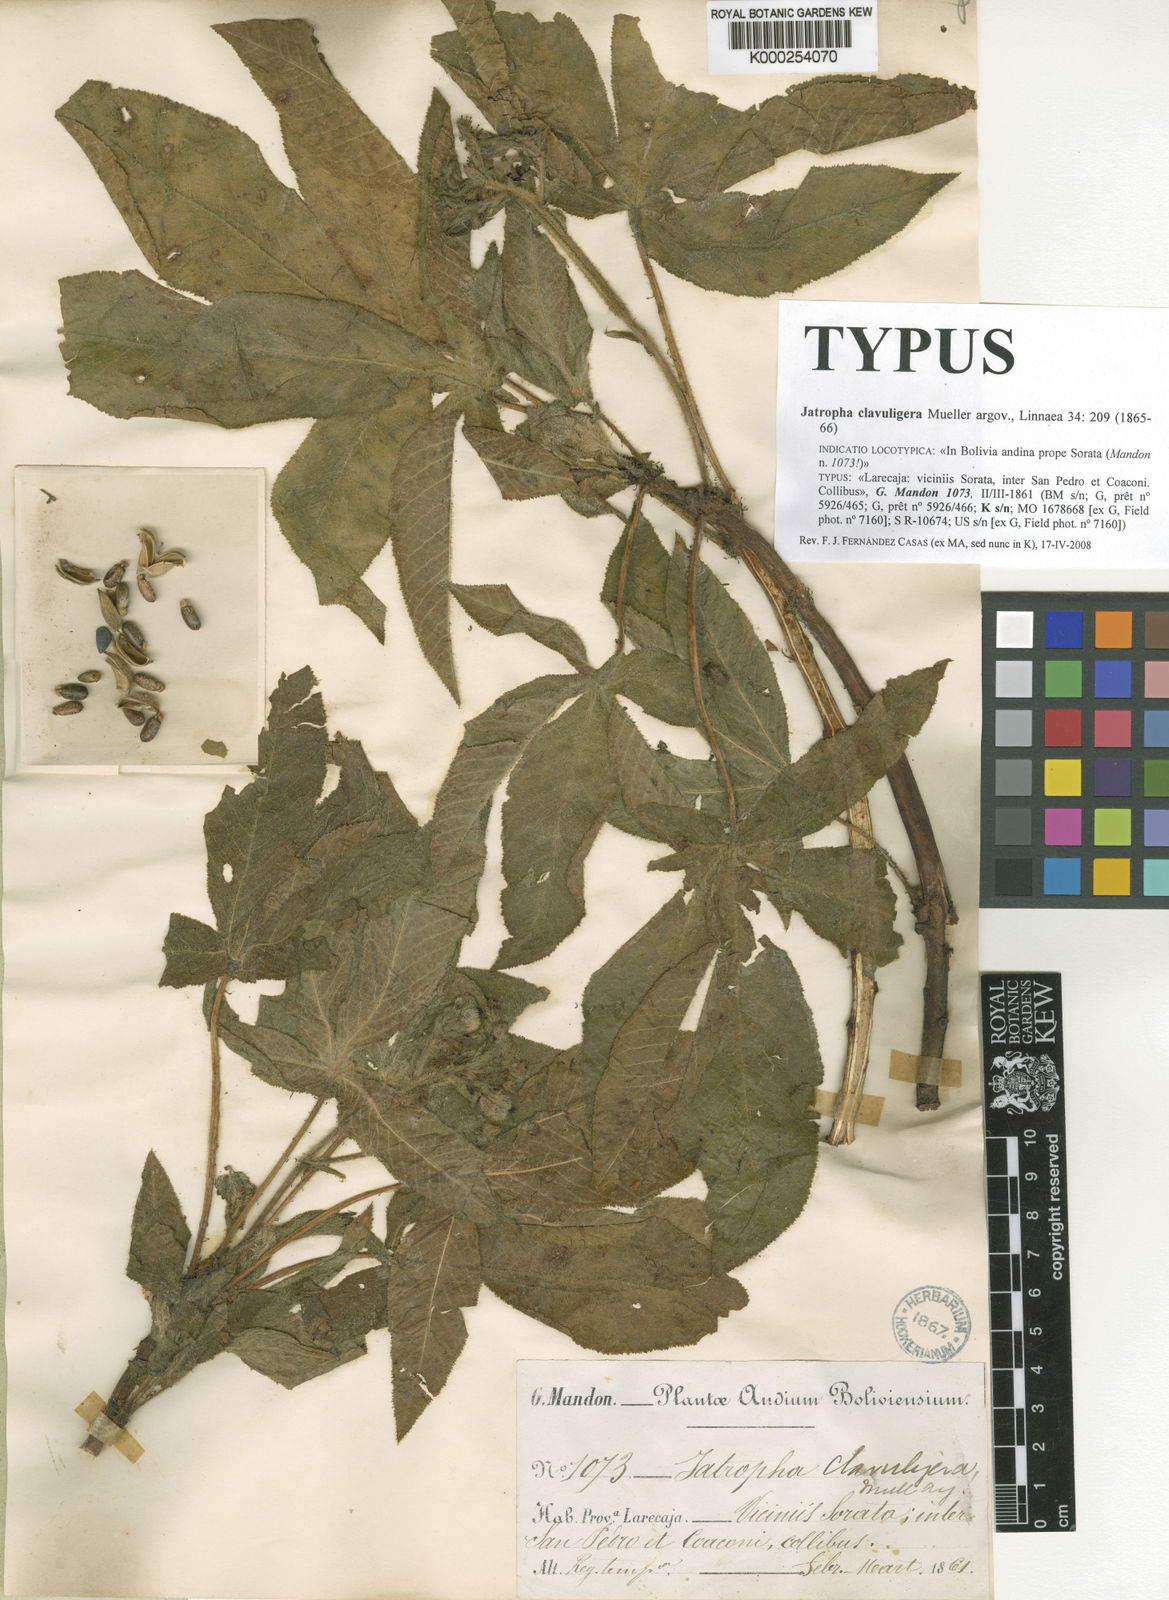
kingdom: Plantae
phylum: Tracheophyta
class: Magnoliopsida
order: Malpighiales
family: Euphorbiaceae
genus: Jatropha
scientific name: Jatropha
